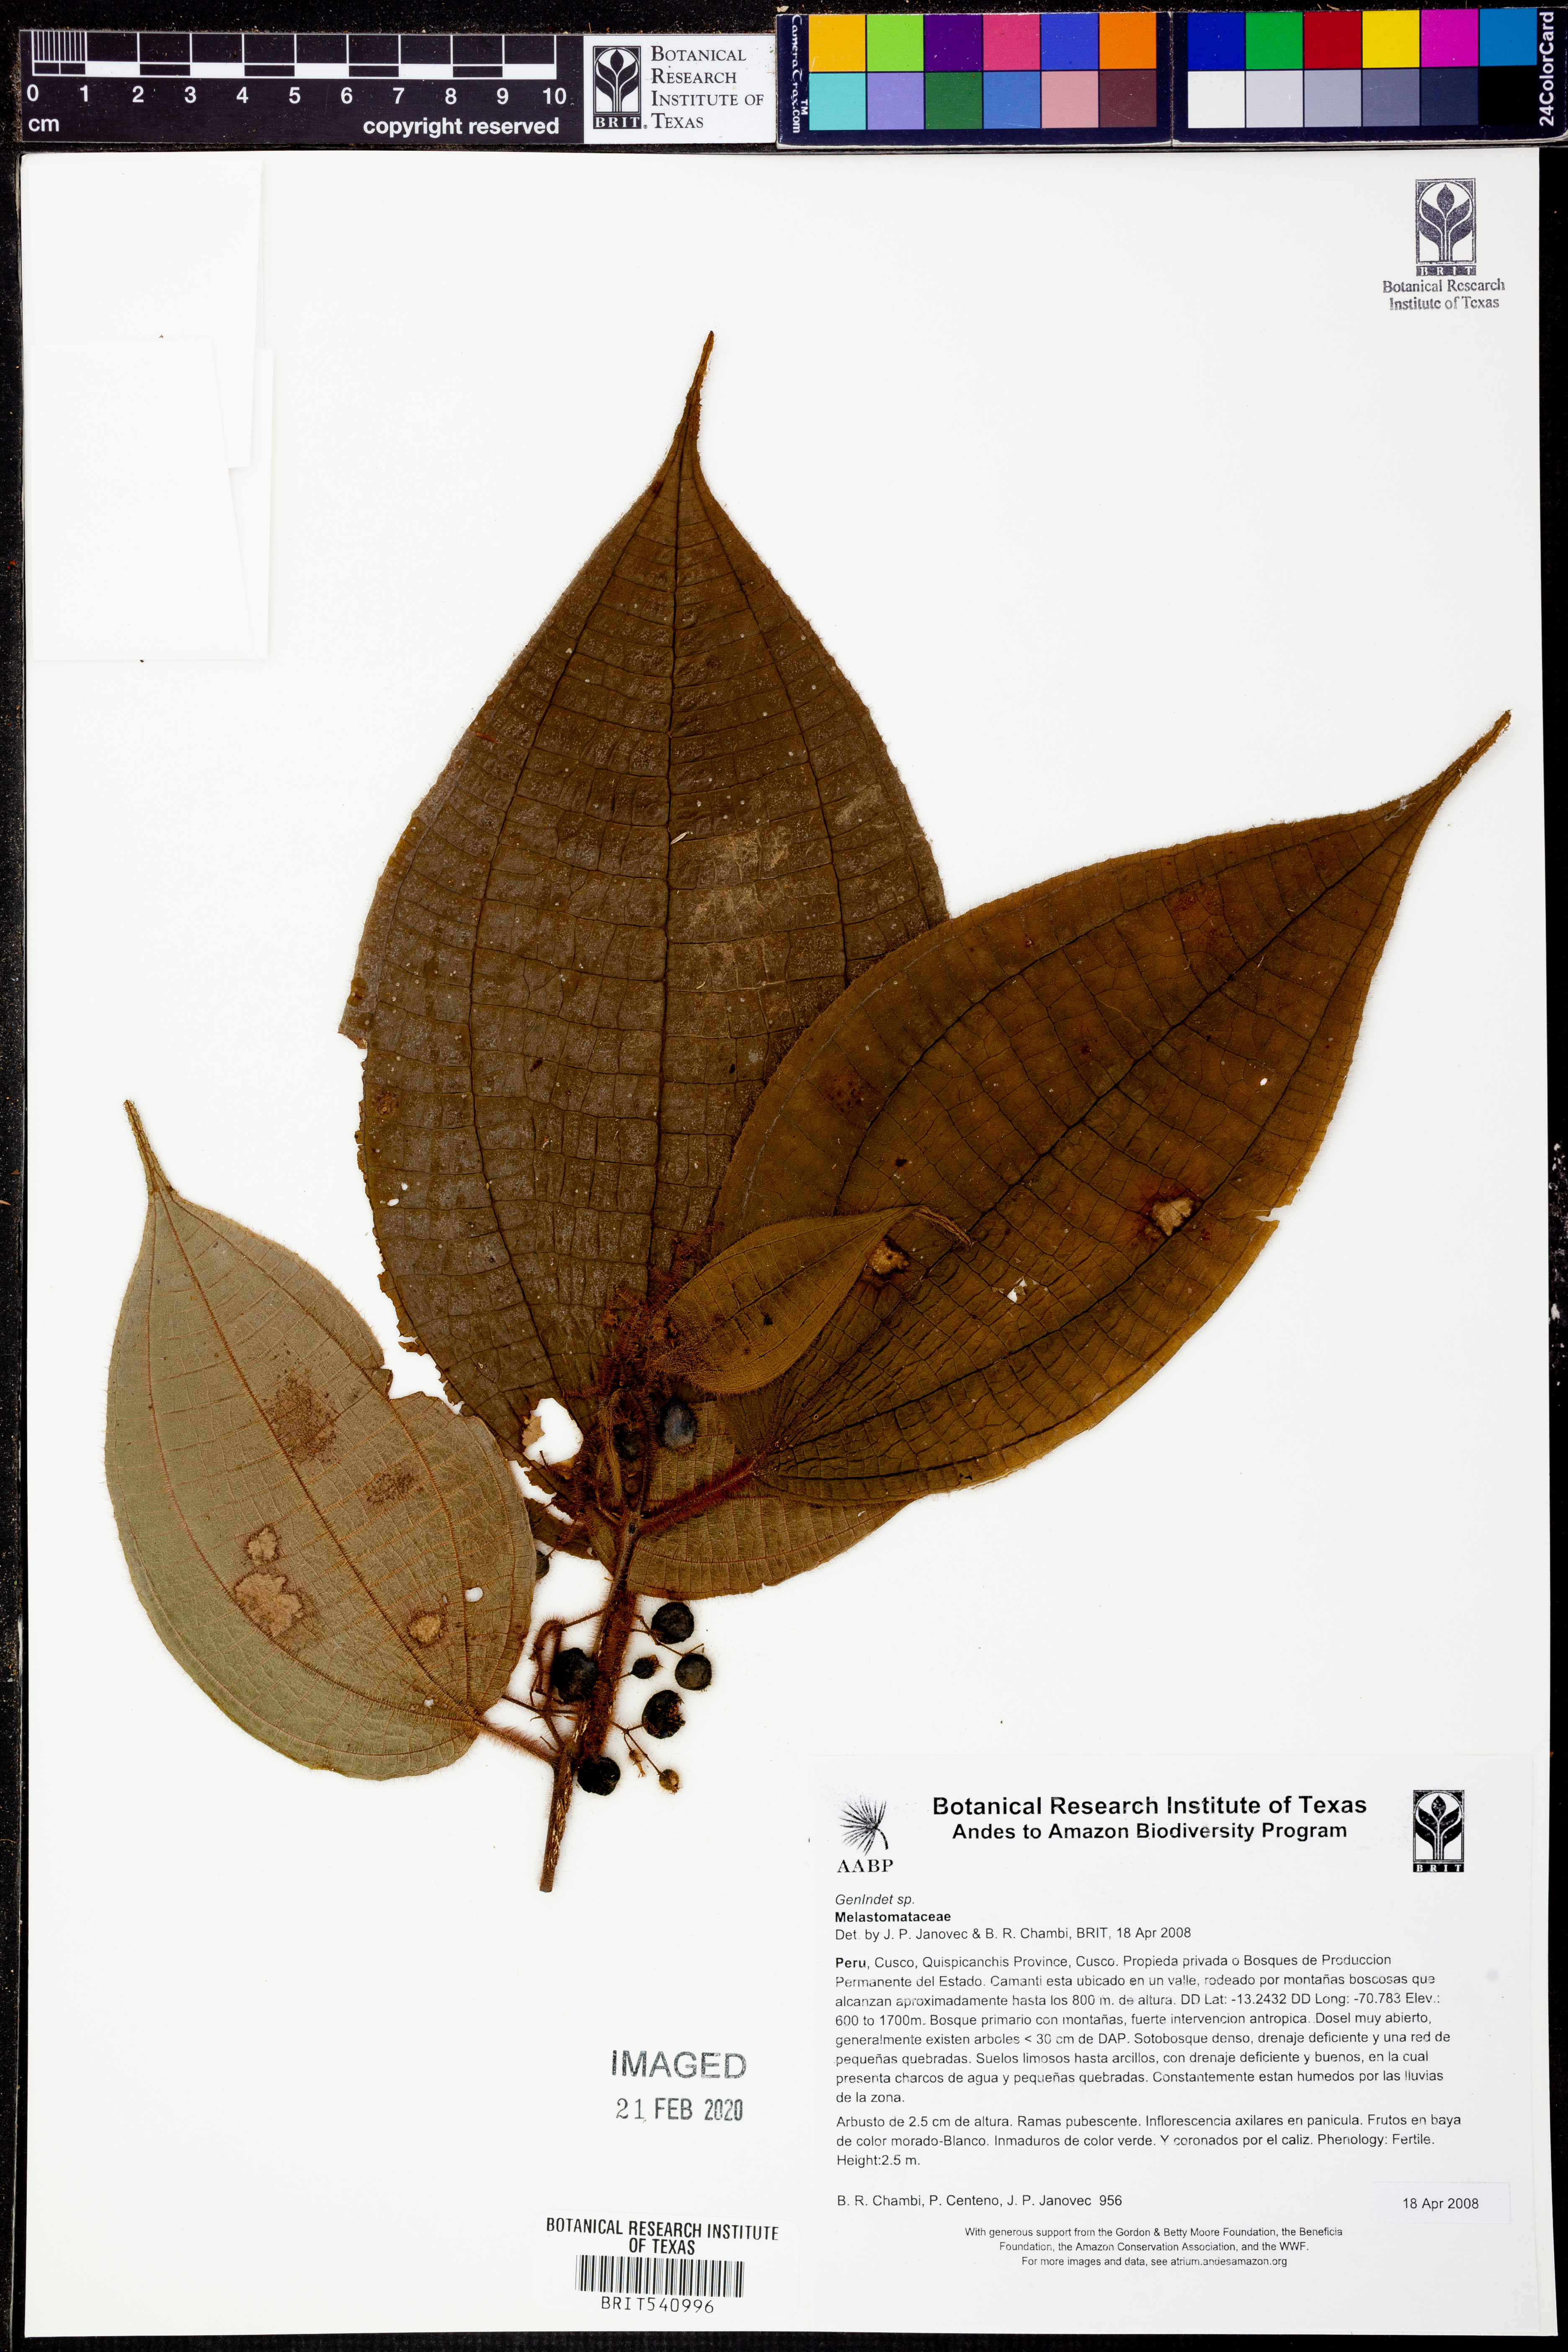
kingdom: Plantae
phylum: Tracheophyta
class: Magnoliopsida
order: Myrtales
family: Melastomataceae
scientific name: Melastomataceae
